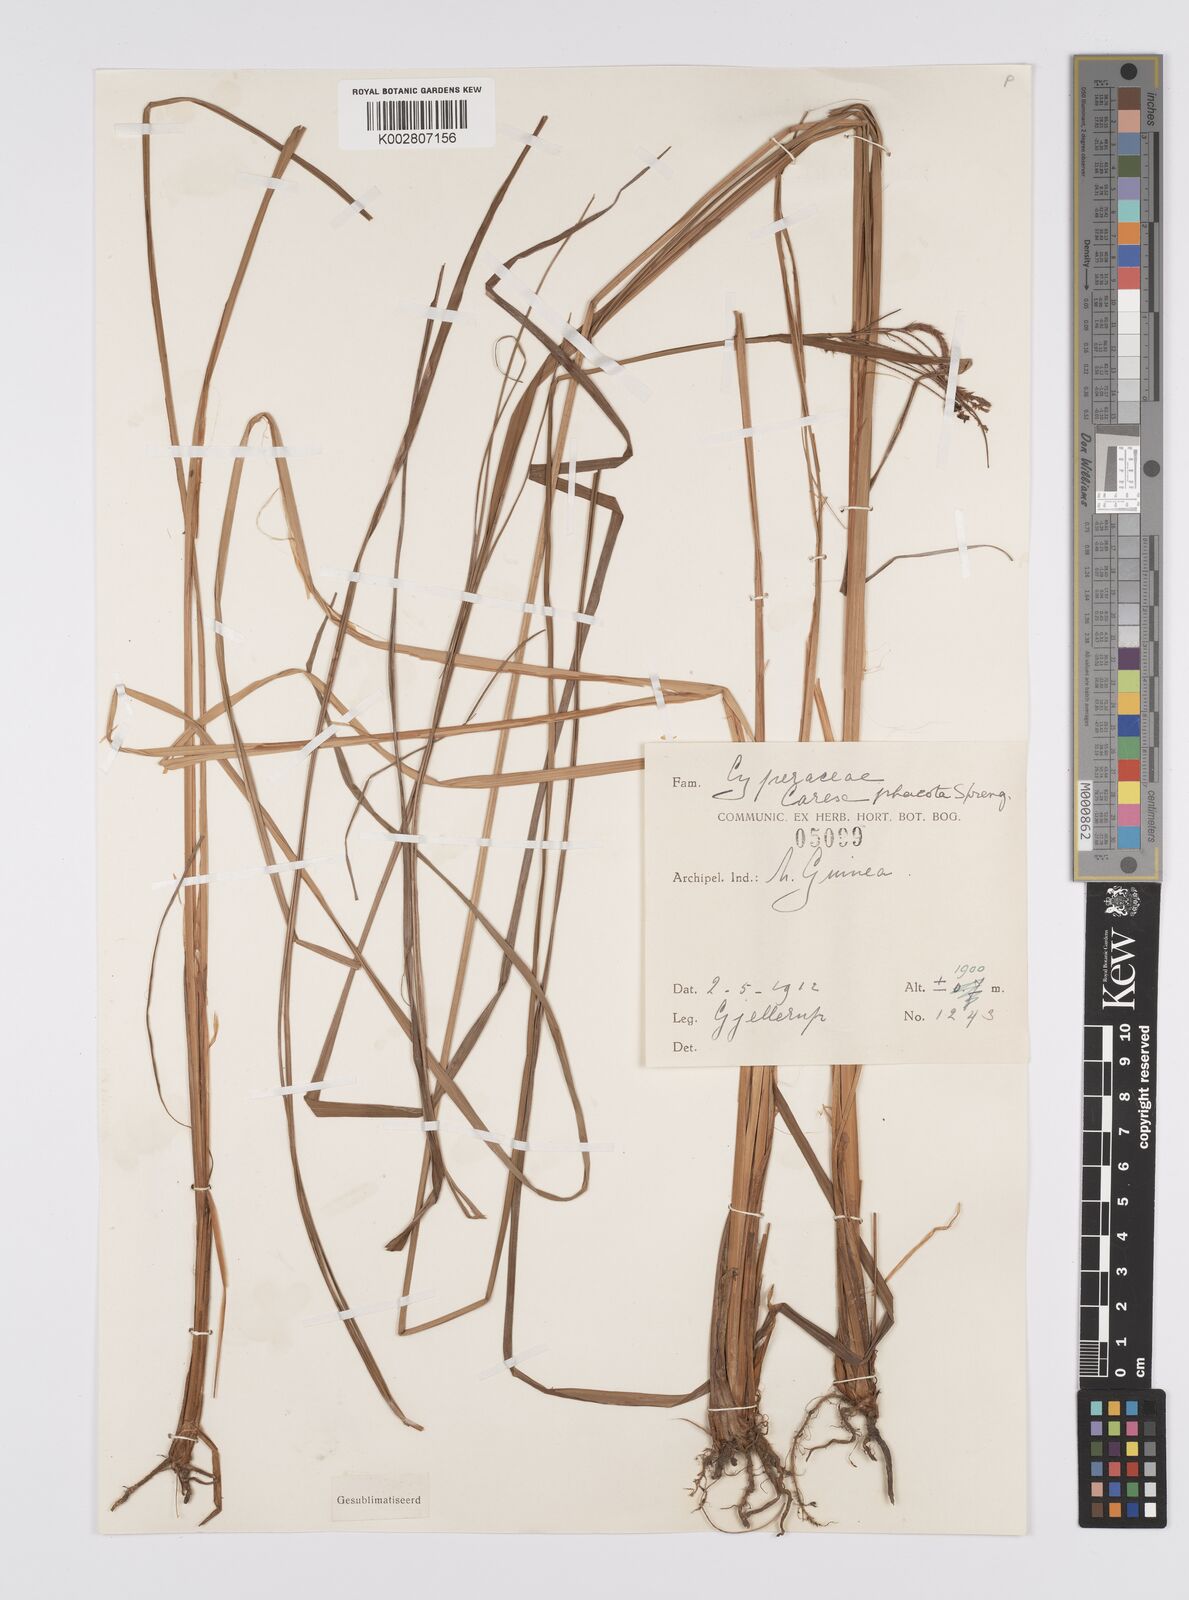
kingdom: Plantae
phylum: Tracheophyta
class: Liliopsida
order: Poales
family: Cyperaceae
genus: Carex
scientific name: Carex phacota
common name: Lakeshore sedge
